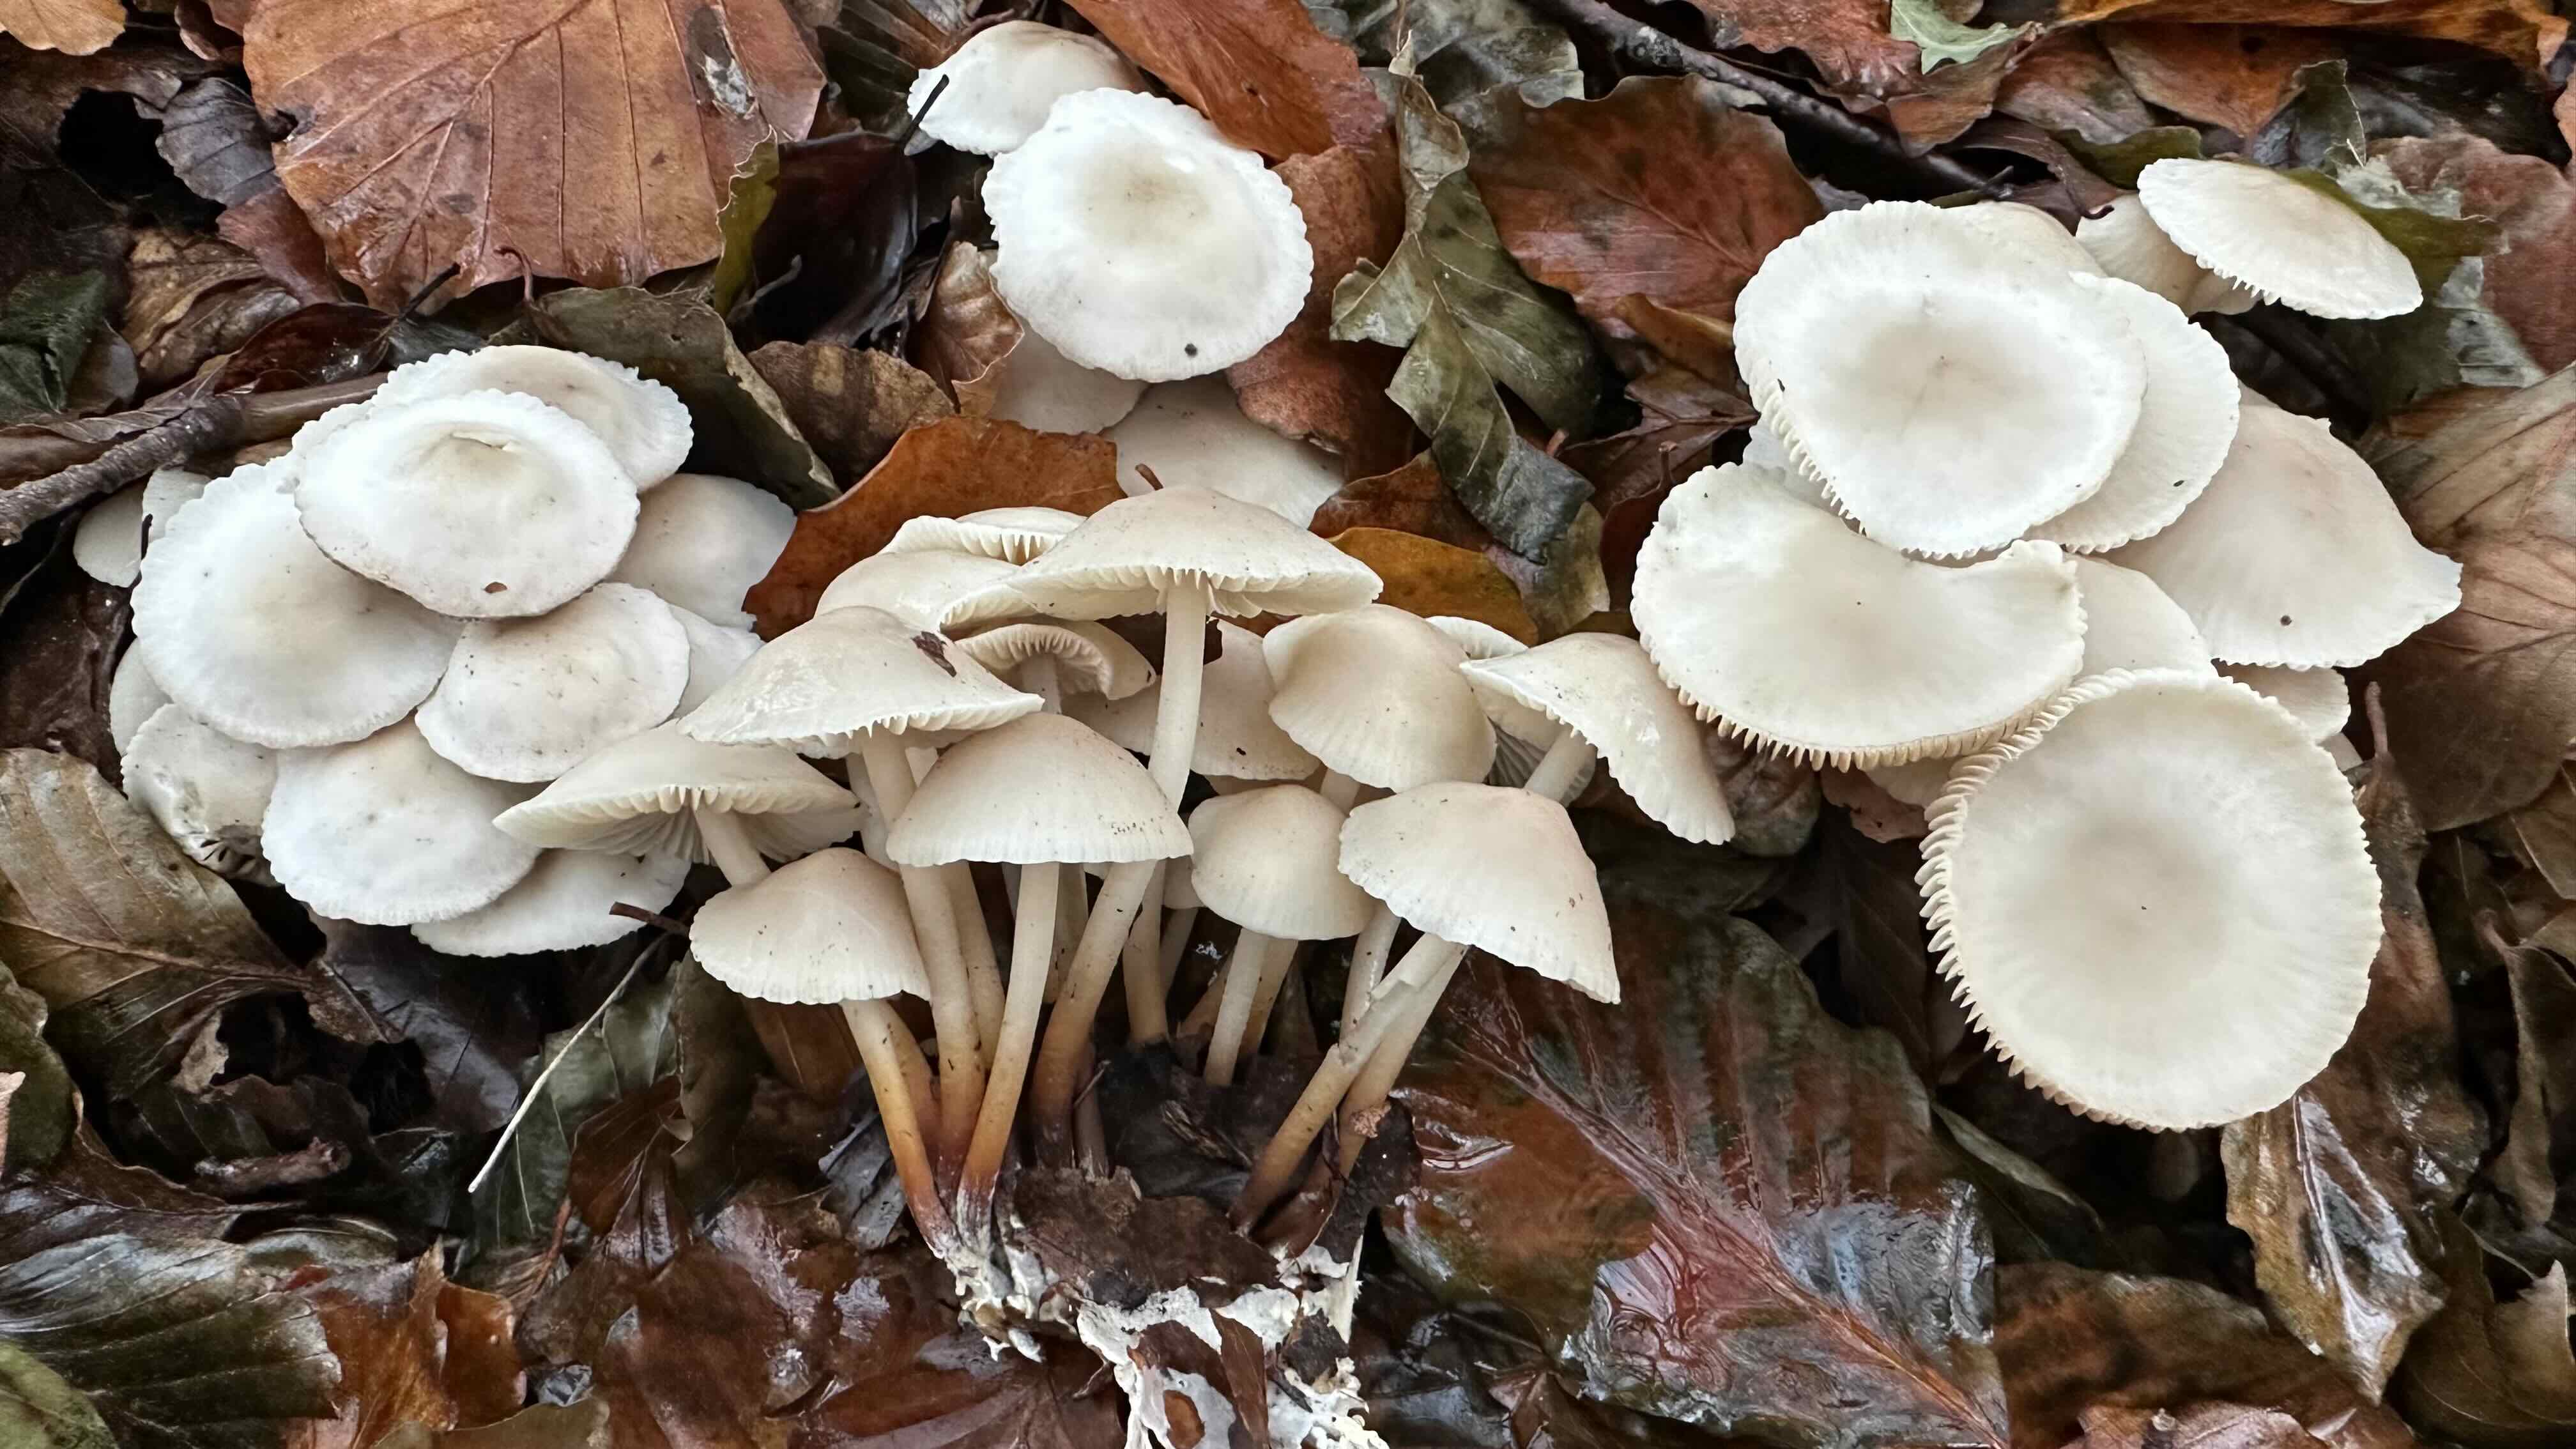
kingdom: Fungi
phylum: Basidiomycota
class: Agaricomycetes
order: Agaricales
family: Marasmiaceae
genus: Marasmius
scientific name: Marasmius wynneae
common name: hvælvet bruskhat
